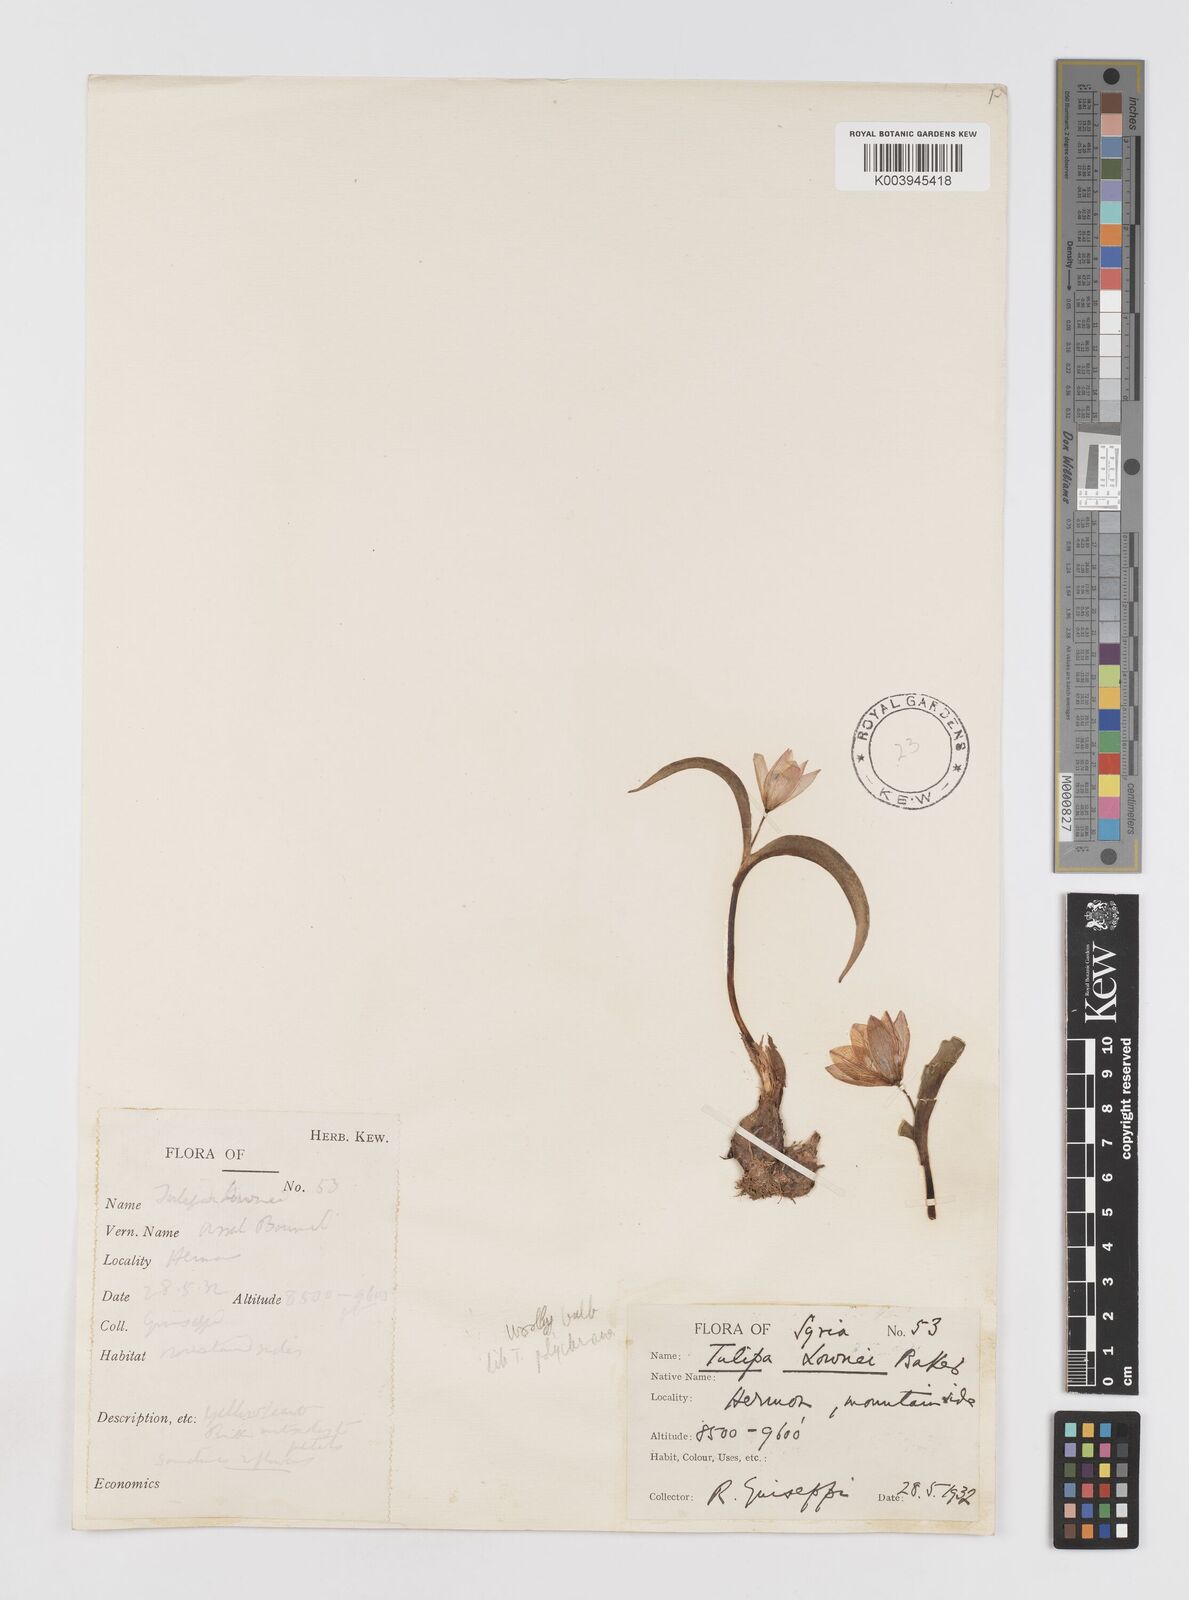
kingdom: Plantae
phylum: Tracheophyta
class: Liliopsida
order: Liliales
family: Liliaceae
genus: Tulipa
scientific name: Tulipa humilis
